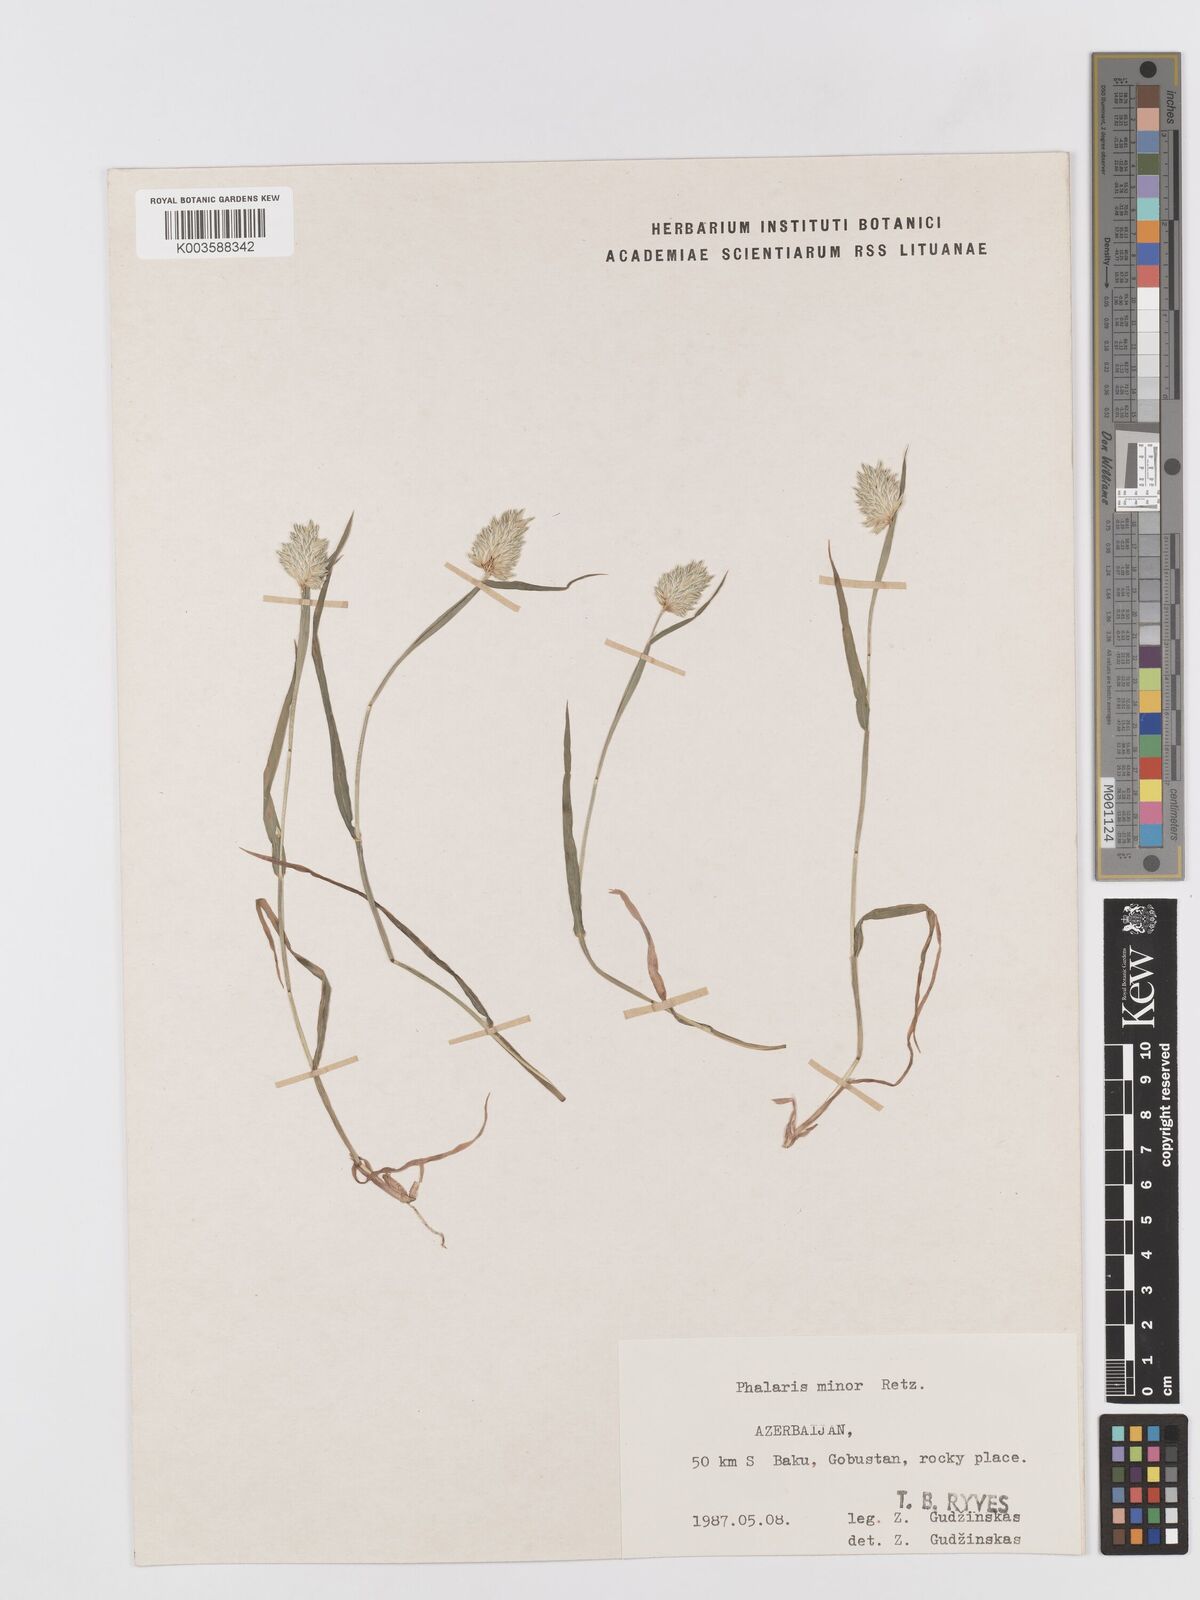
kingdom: Plantae
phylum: Tracheophyta
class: Liliopsida
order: Poales
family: Poaceae
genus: Phalaris
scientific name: Phalaris minor
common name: Littleseed canarygrass
